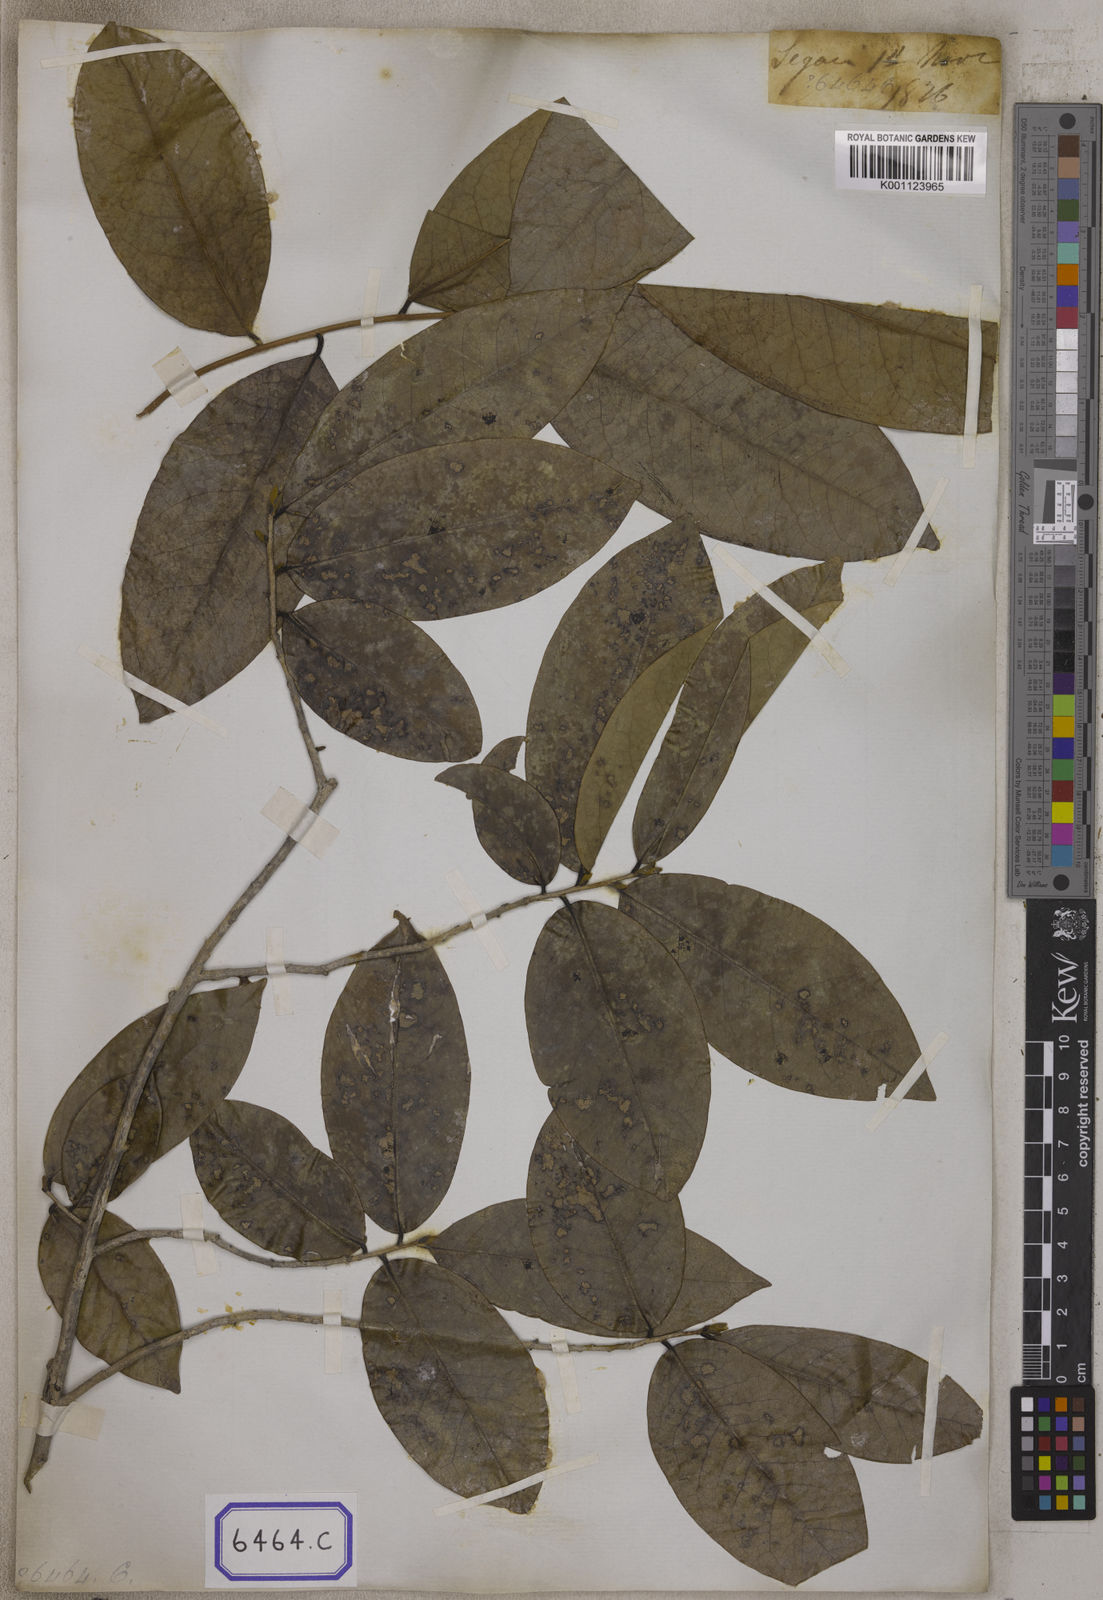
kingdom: Plantae
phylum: Tracheophyta
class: Magnoliopsida
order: Magnoliales
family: Annonaceae
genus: Alphonsea
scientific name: Alphonsea lutea
